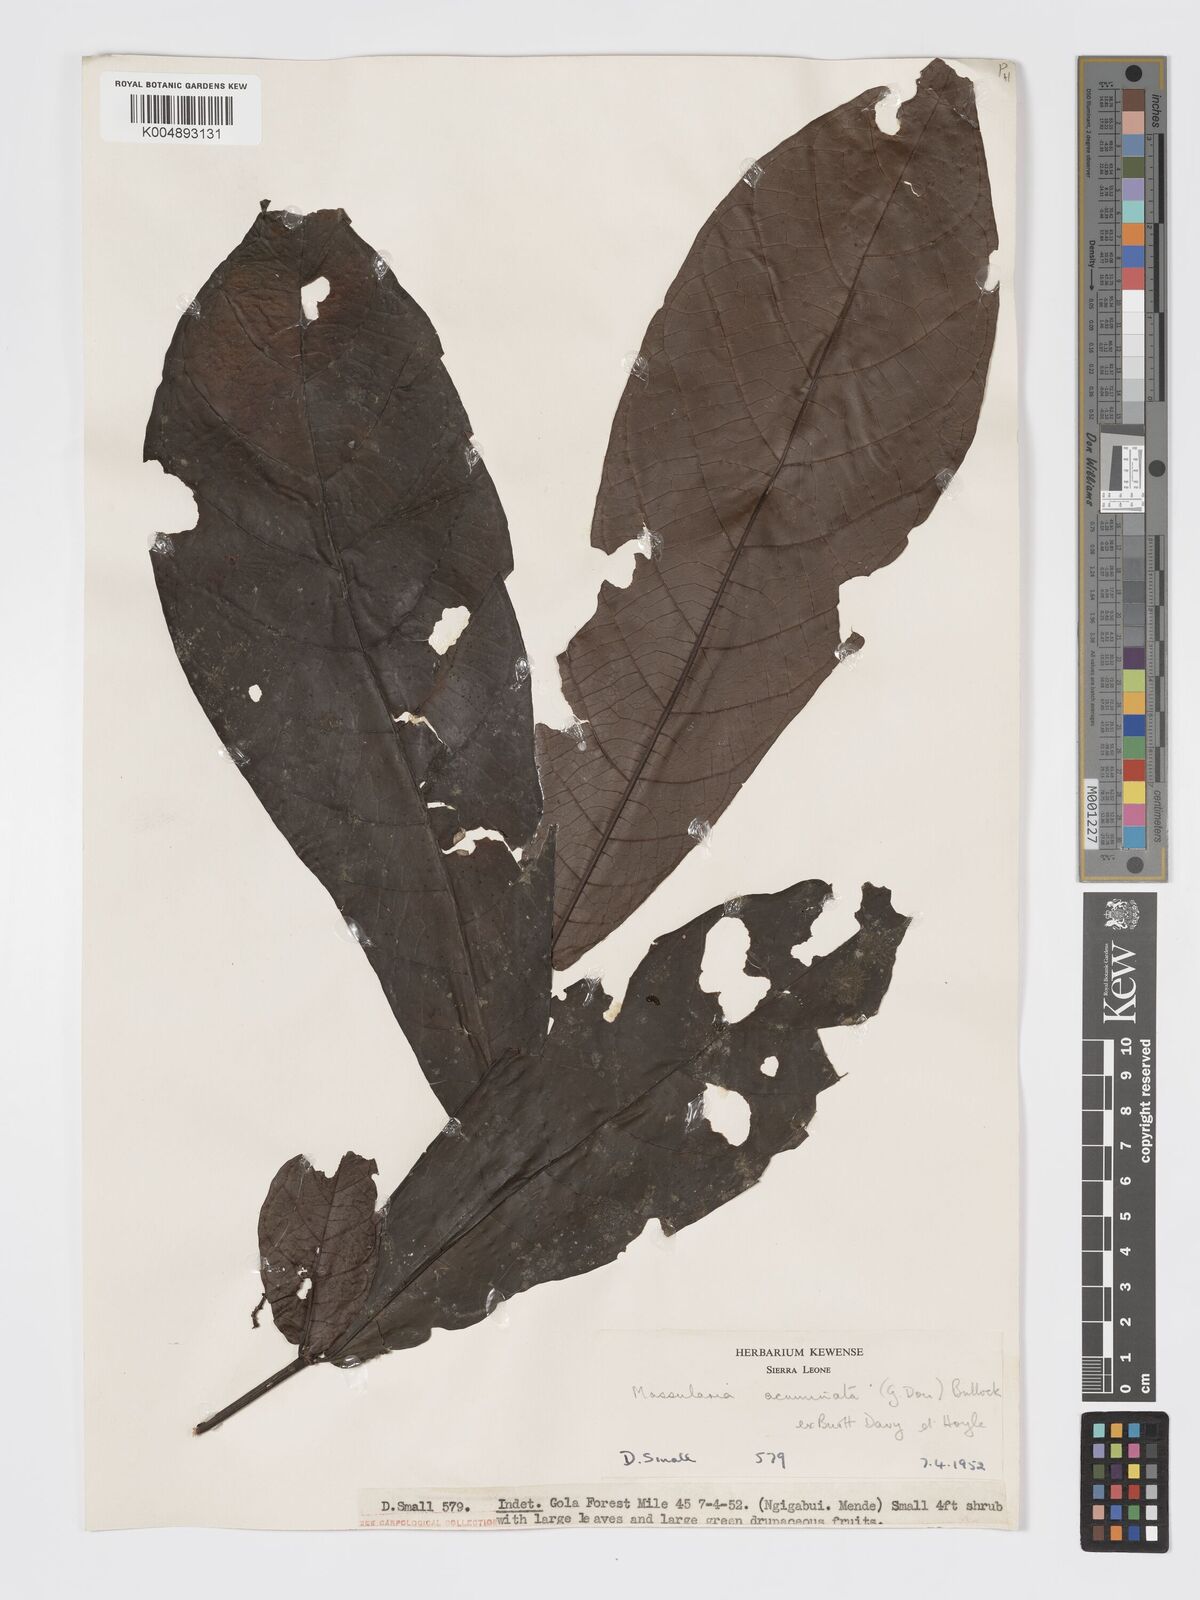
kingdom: Plantae
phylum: Tracheophyta
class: Magnoliopsida
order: Gentianales
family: Rubiaceae
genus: Massularia
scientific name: Massularia acuminata
